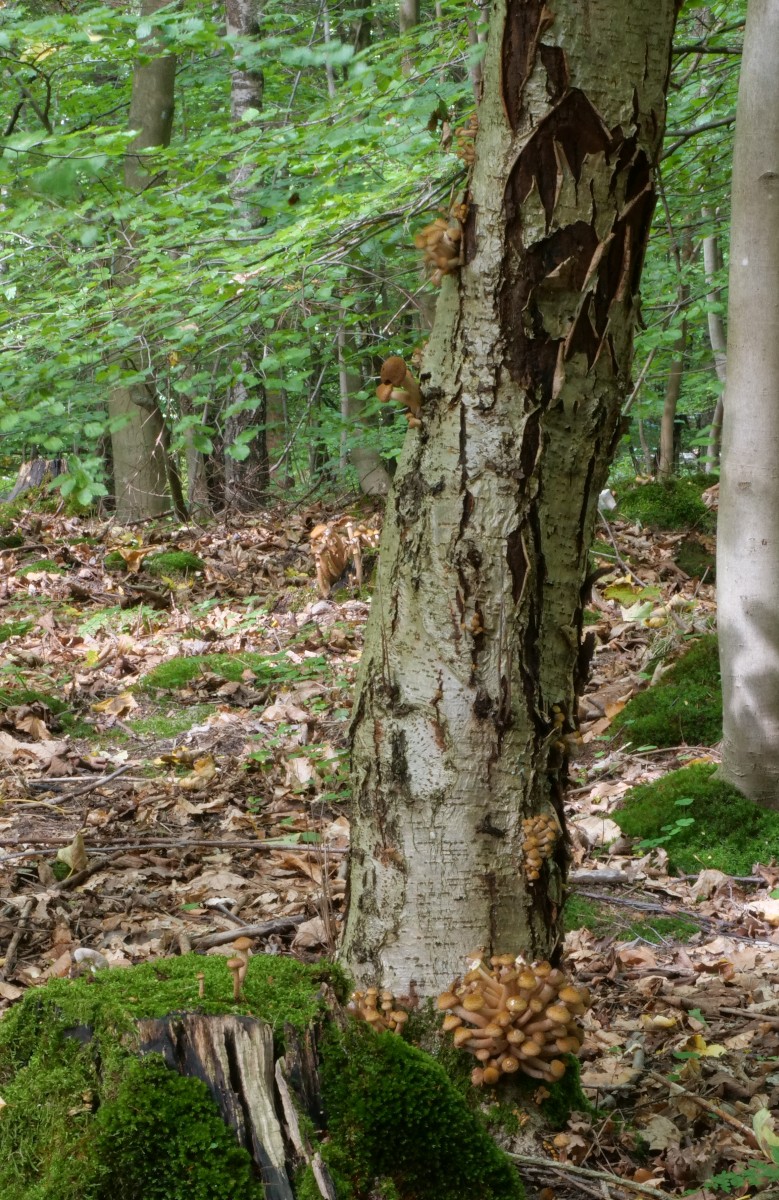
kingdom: Fungi
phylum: Basidiomycota
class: Agaricomycetes
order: Agaricales
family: Physalacriaceae
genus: Armillaria
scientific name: Armillaria lutea
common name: køllestokket honningsvamp
